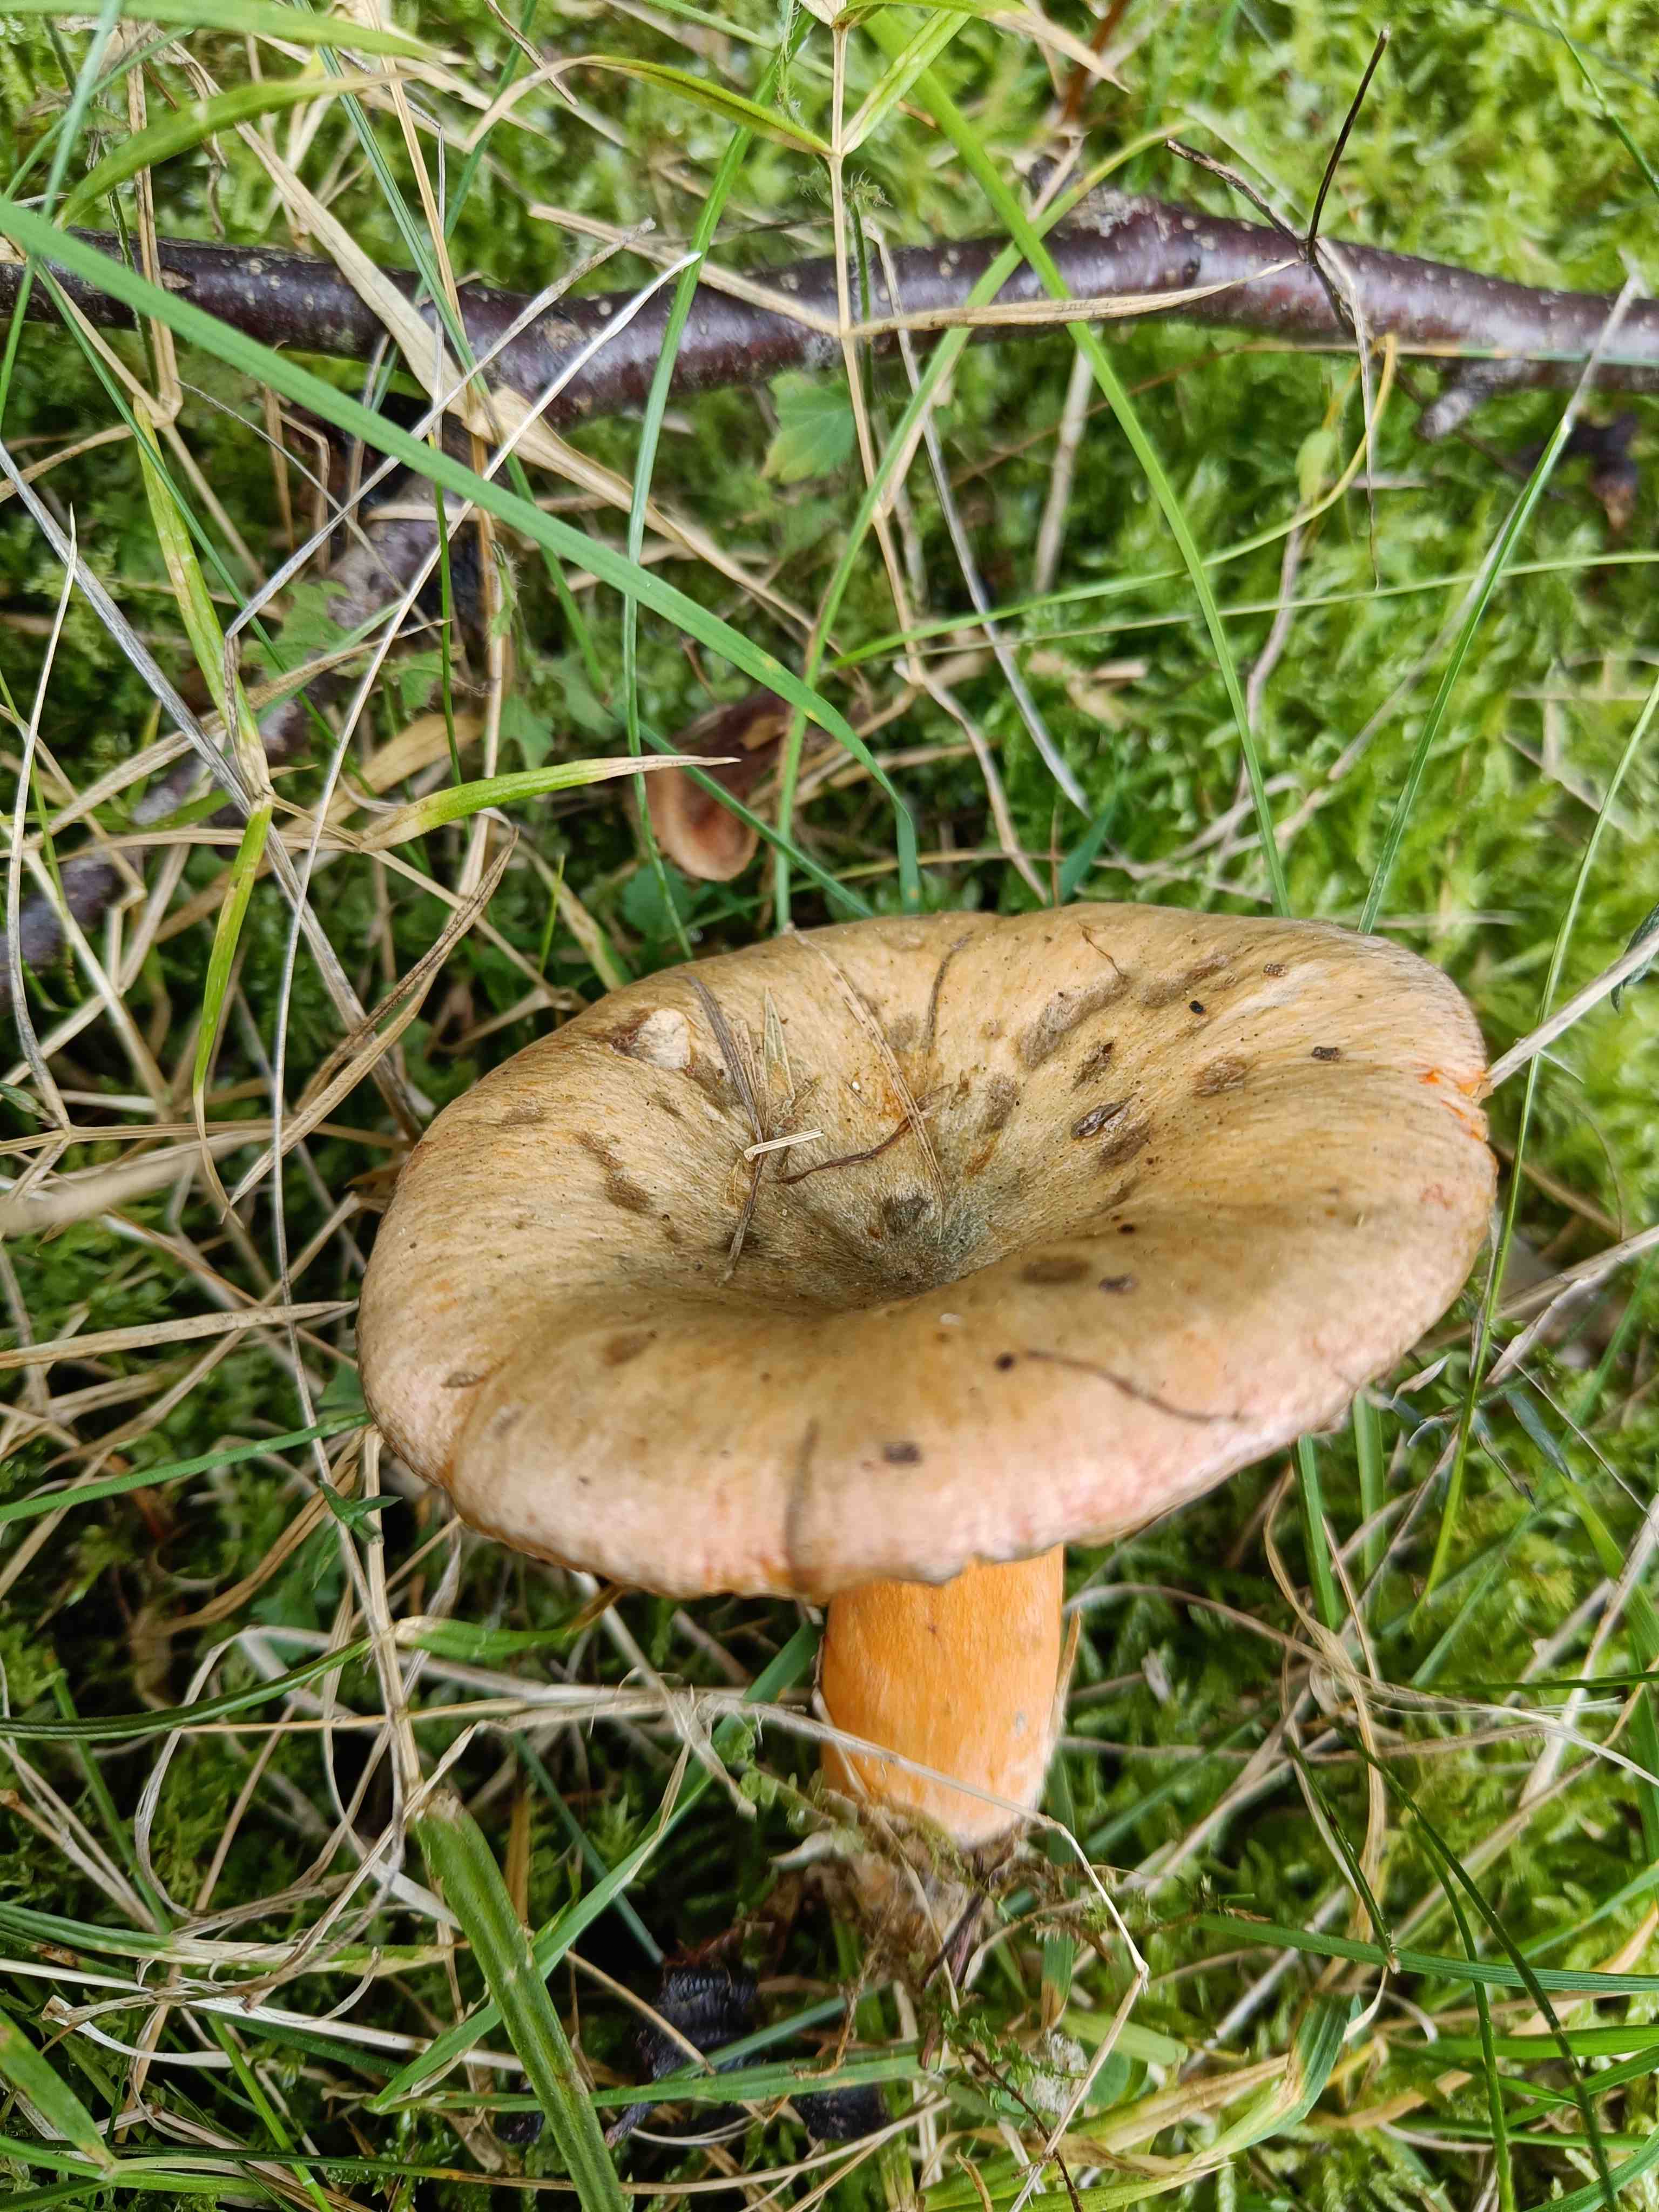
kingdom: Fungi
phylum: Basidiomycota
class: Agaricomycetes
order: Russulales
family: Russulaceae
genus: Lactarius
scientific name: Lactarius deterrimus
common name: gran-mælkehat
